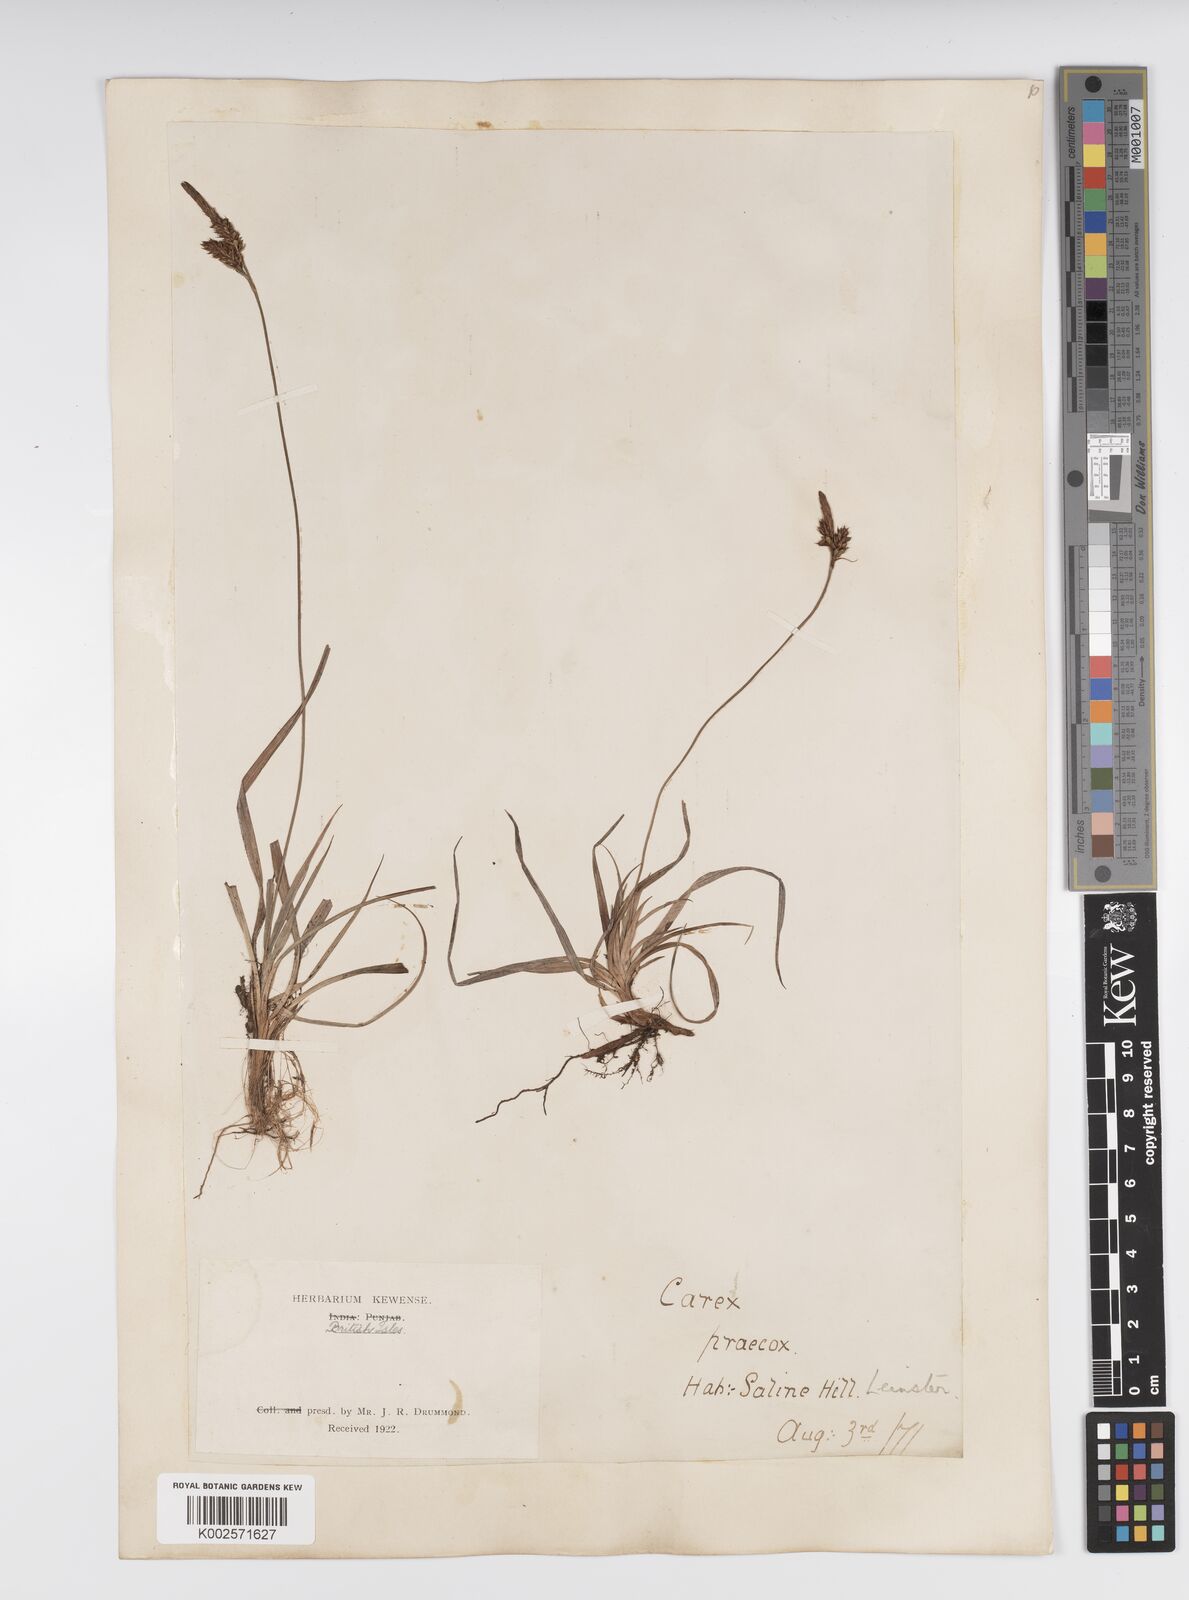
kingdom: Plantae
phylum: Tracheophyta
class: Liliopsida
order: Poales
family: Cyperaceae
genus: Carex
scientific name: Carex caryophyllea
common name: Spring sedge
